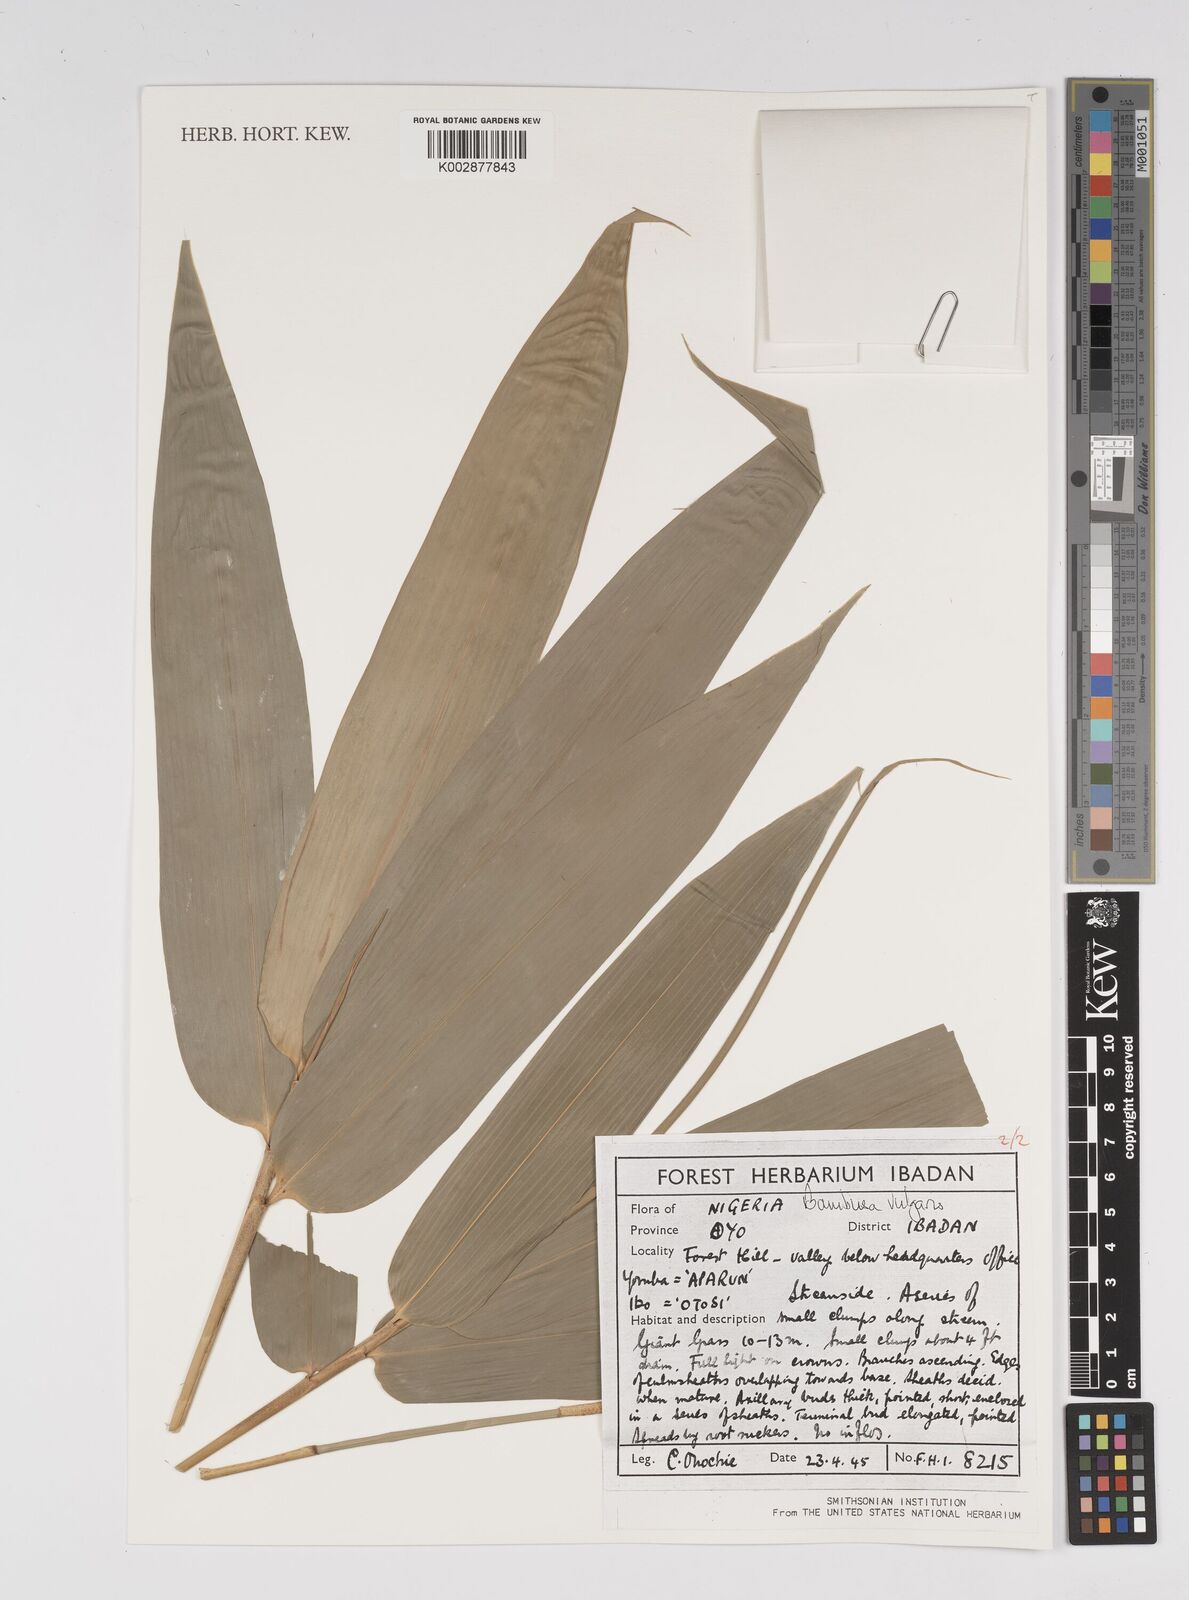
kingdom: Plantae
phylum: Tracheophyta
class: Liliopsida
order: Poales
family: Poaceae
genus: Bambusa
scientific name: Bambusa vulgaris
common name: Common bamboo
